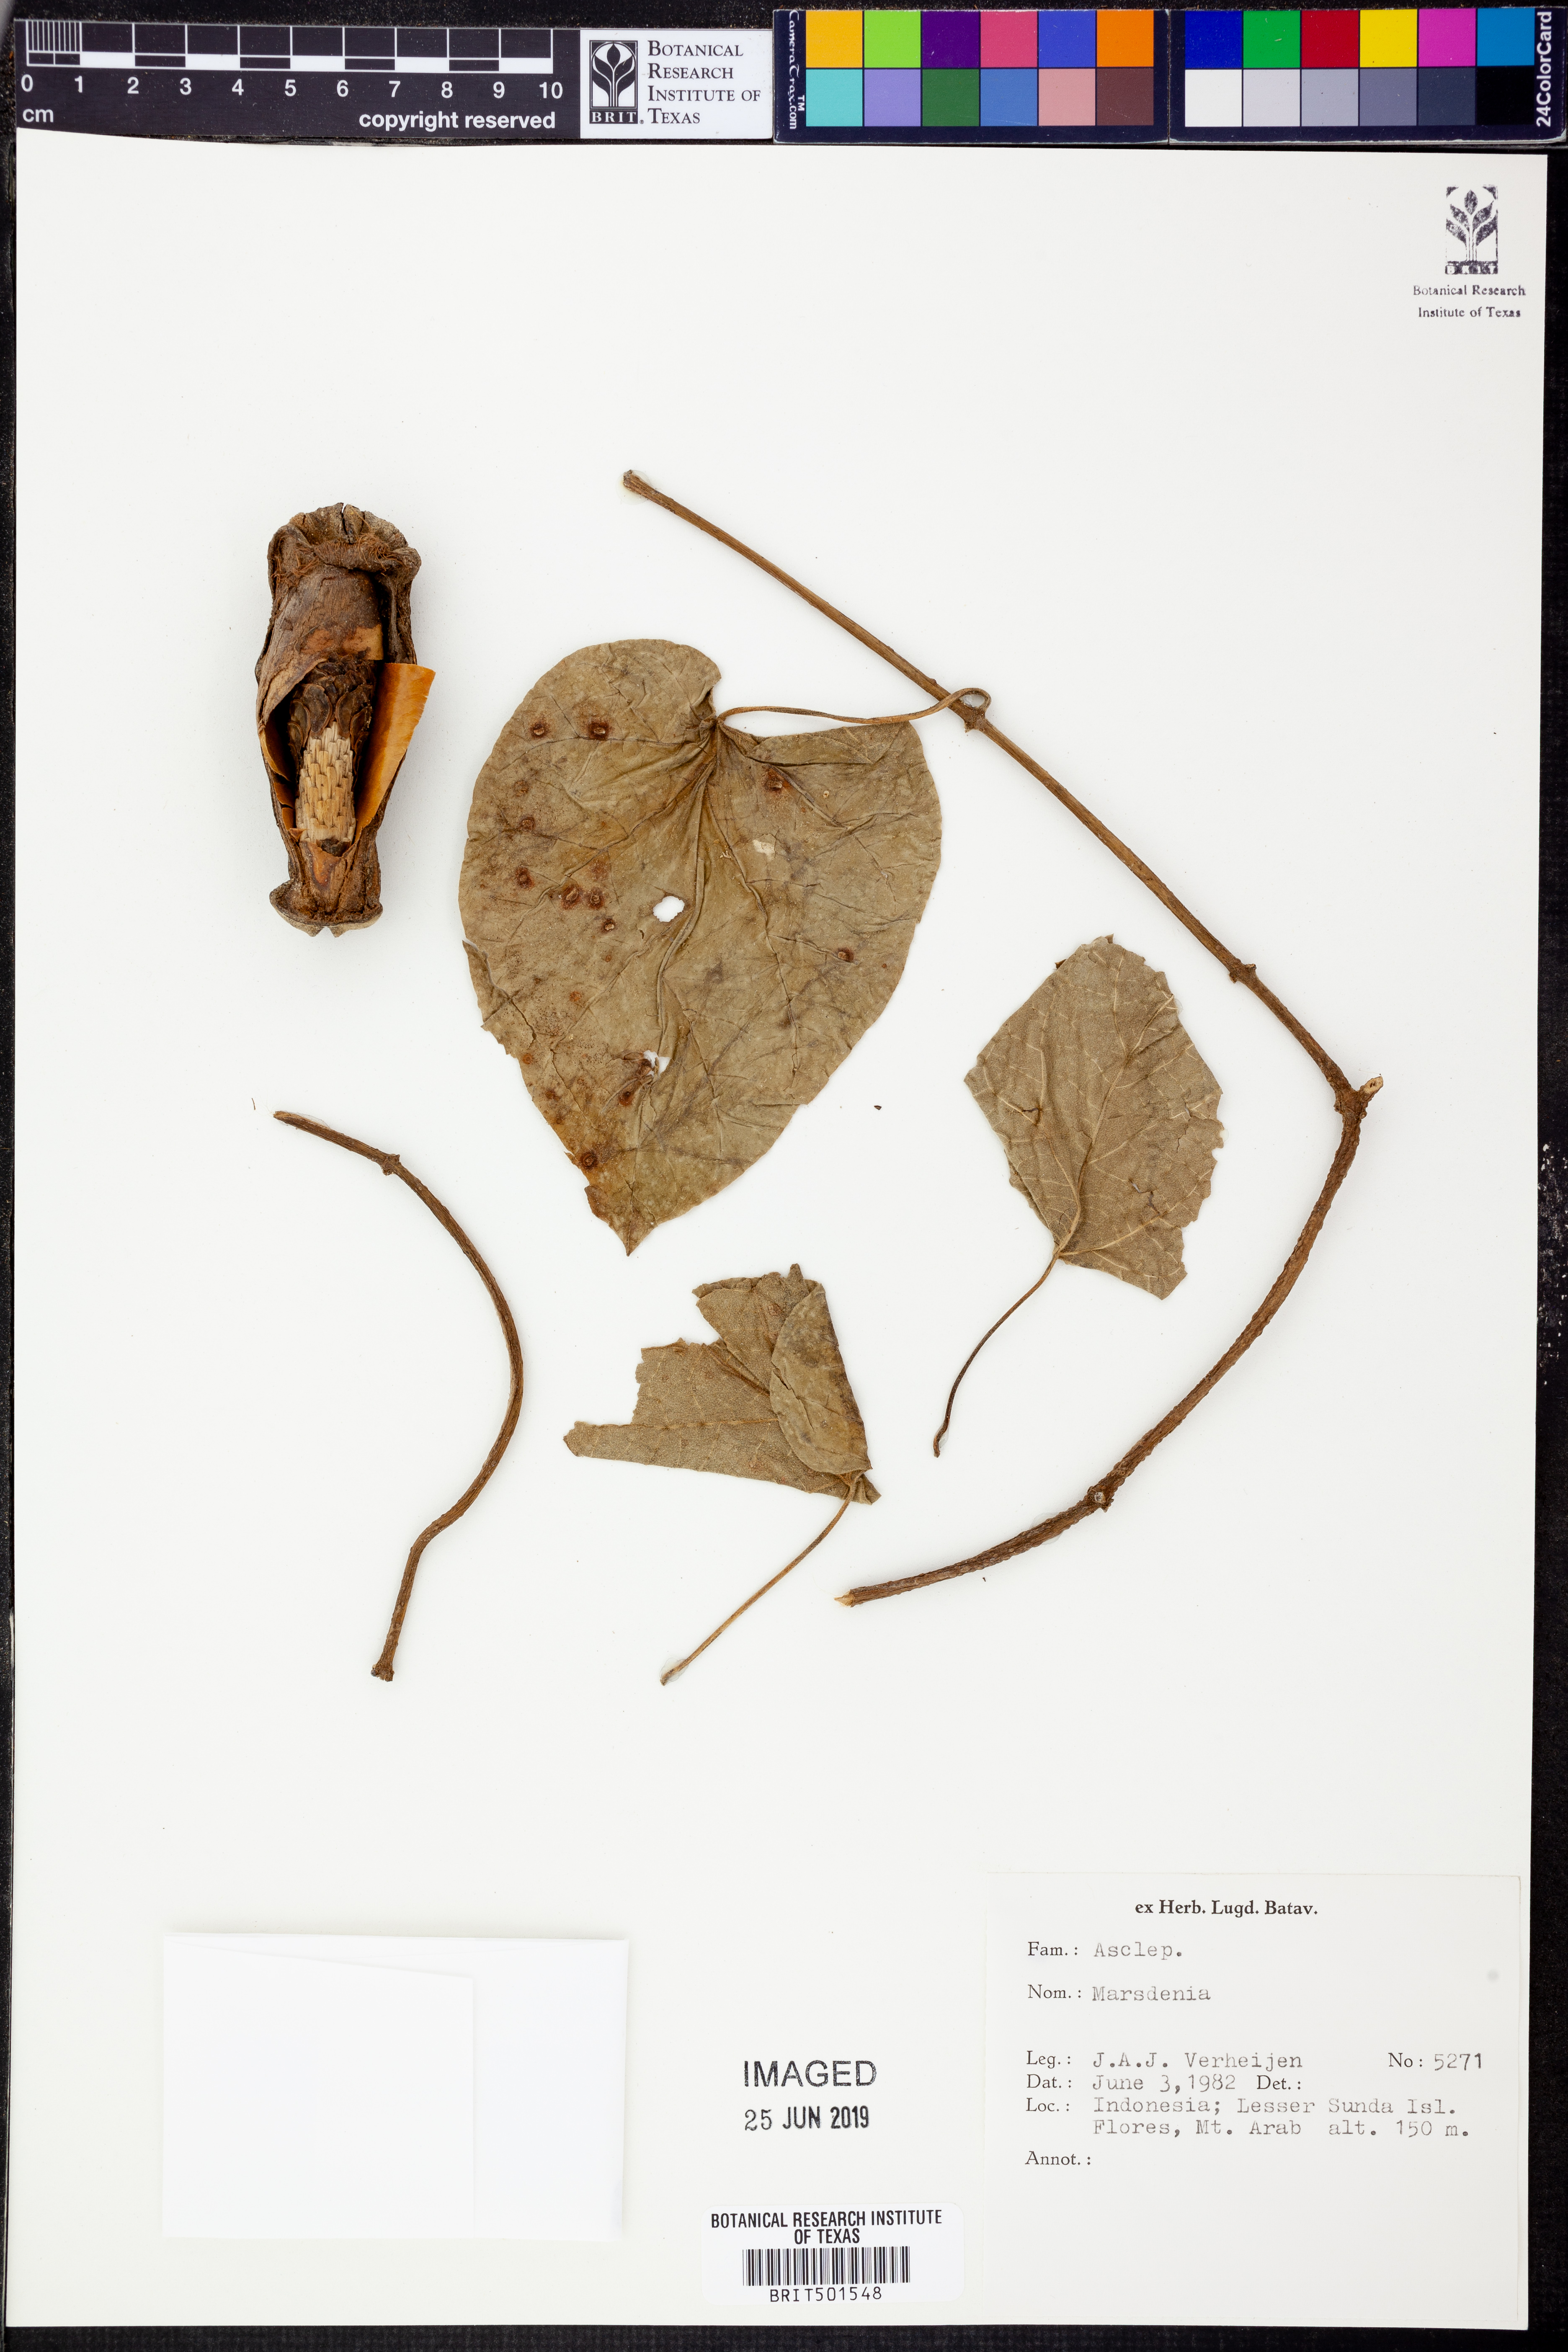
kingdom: Plantae
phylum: Tracheophyta
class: Magnoliopsida
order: Gentianales
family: Apocynaceae
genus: Marsdenia
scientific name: Marsdenia
